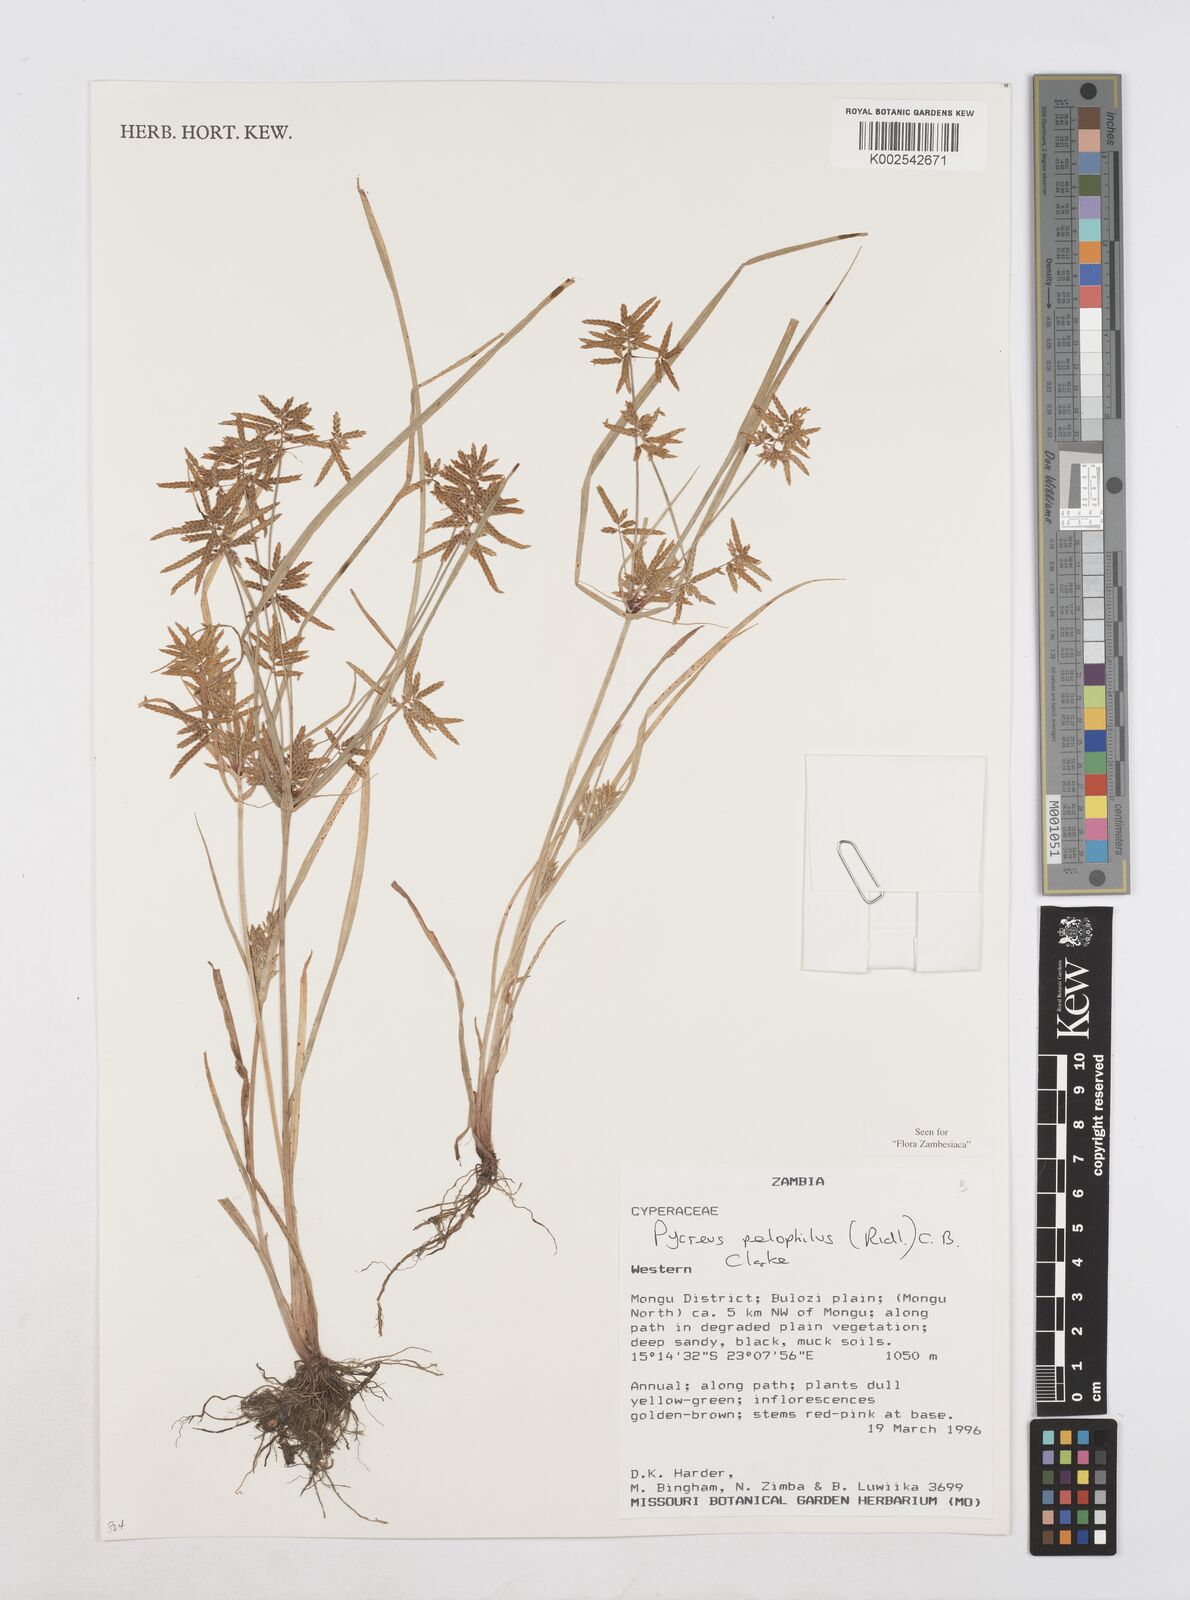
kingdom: Plantae
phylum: Tracheophyta
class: Liliopsida
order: Poales
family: Cyperaceae
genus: Cyperus
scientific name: Cyperus pelophilus
